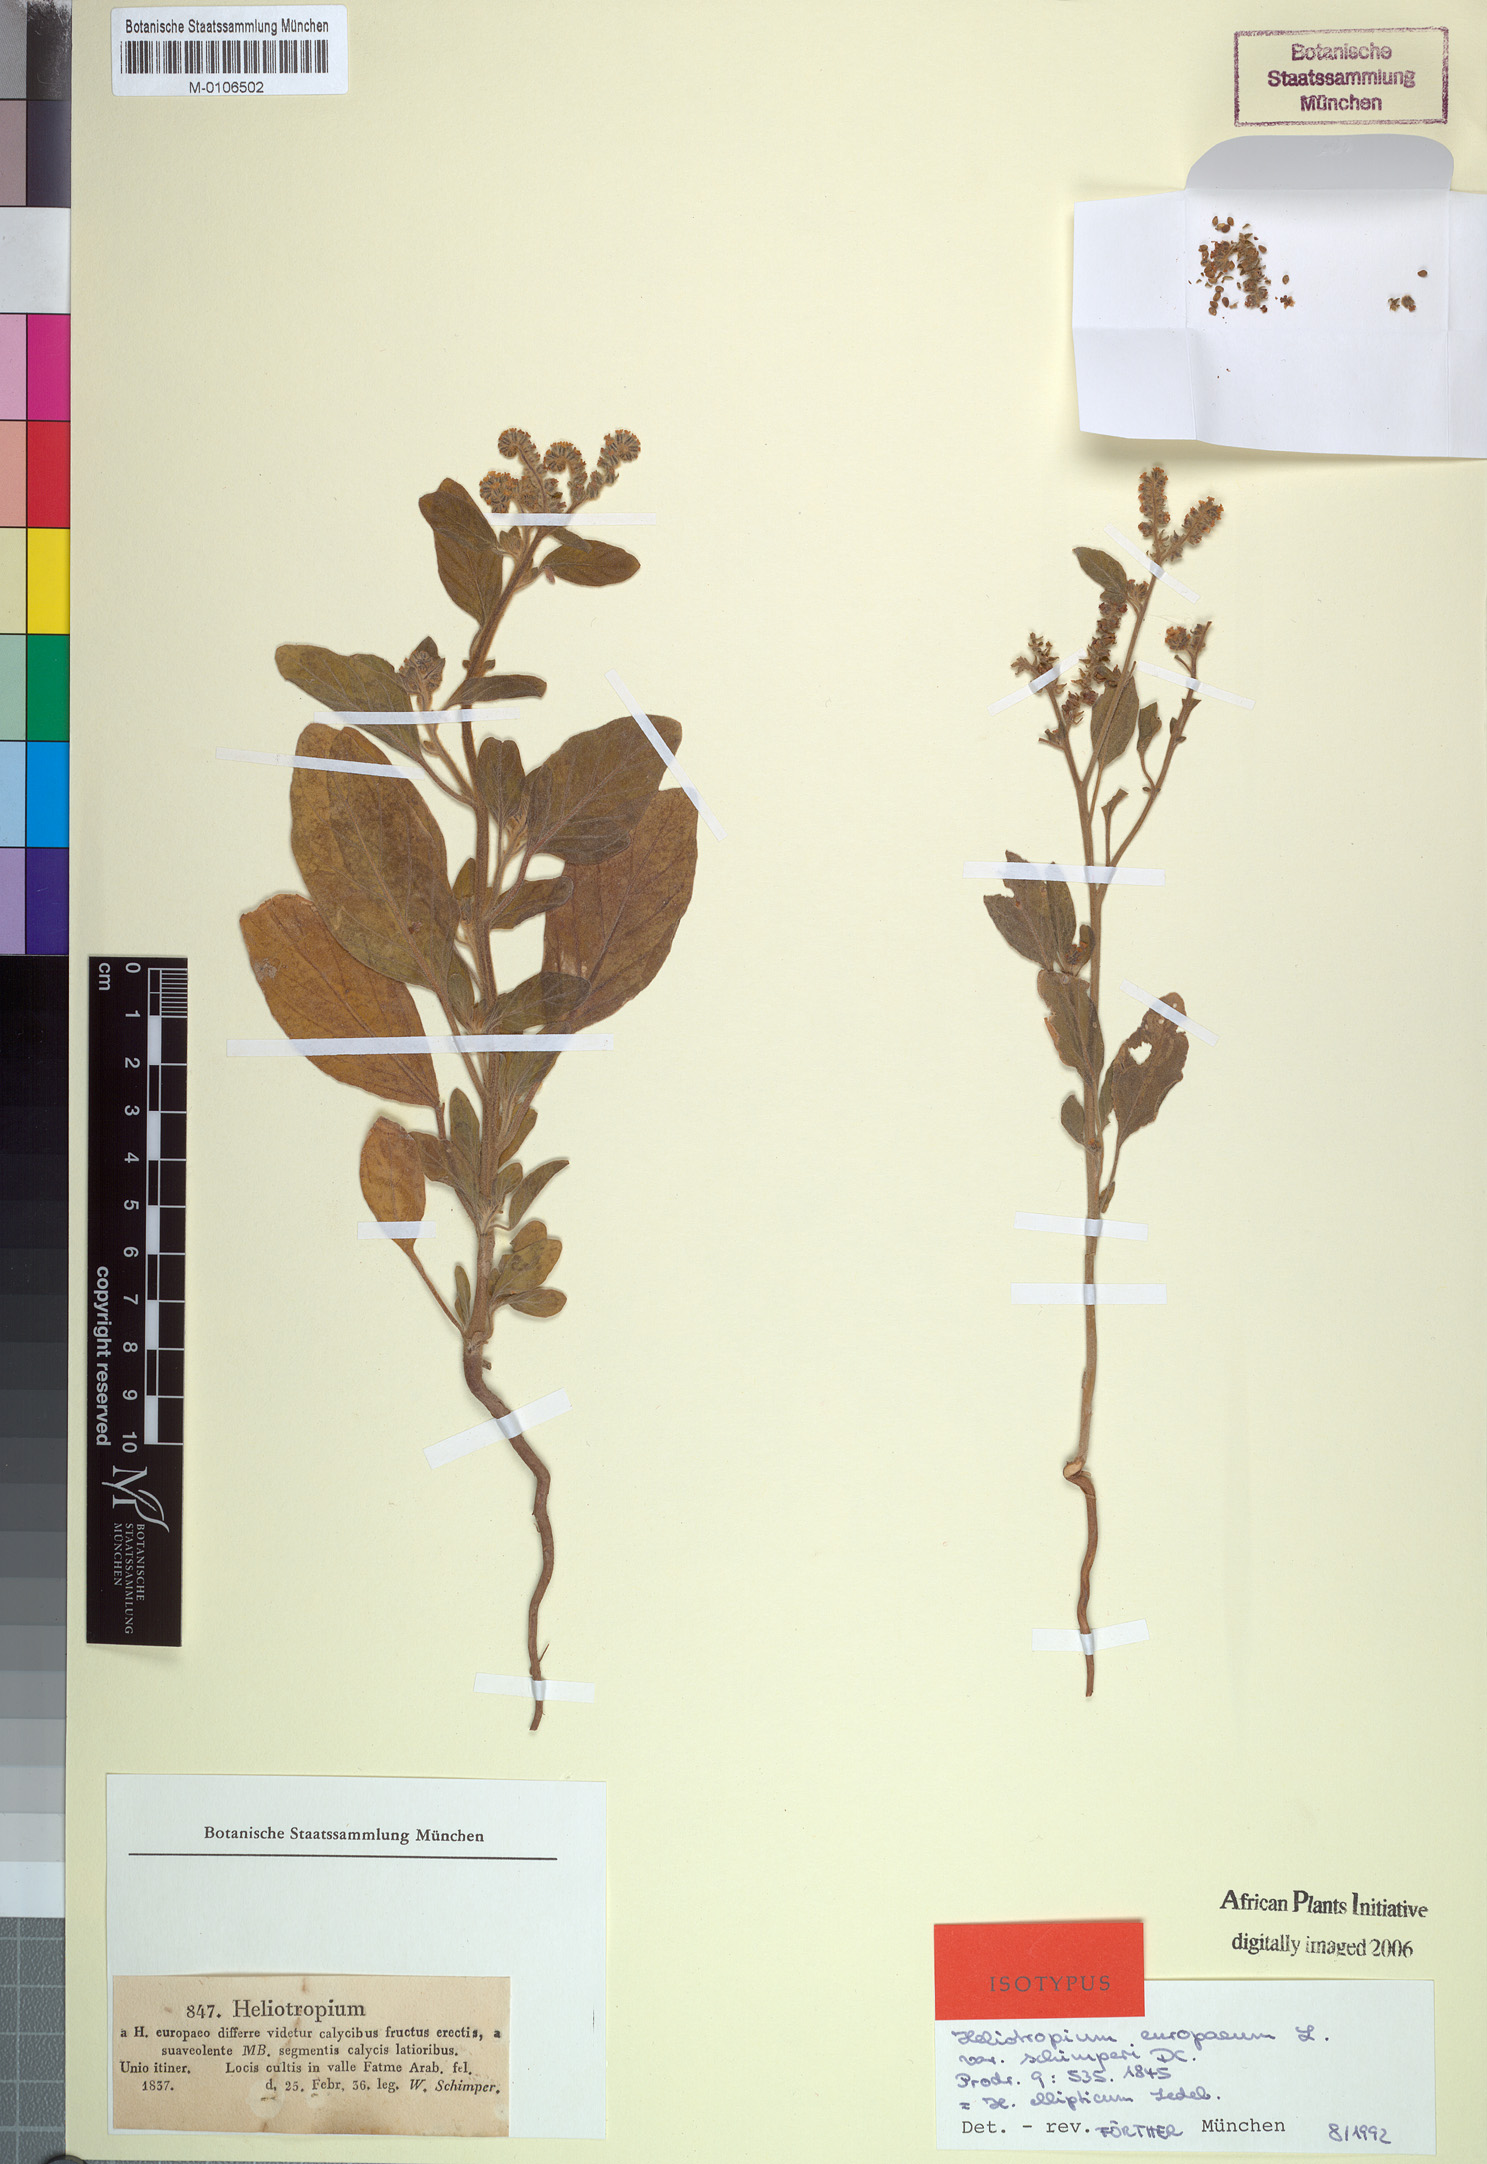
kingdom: Plantae
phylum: Tracheophyta
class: Magnoliopsida
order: Boraginales
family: Heliotropiaceae
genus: Heliotropium
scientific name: Heliotropium europaeum
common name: European heliotrope
